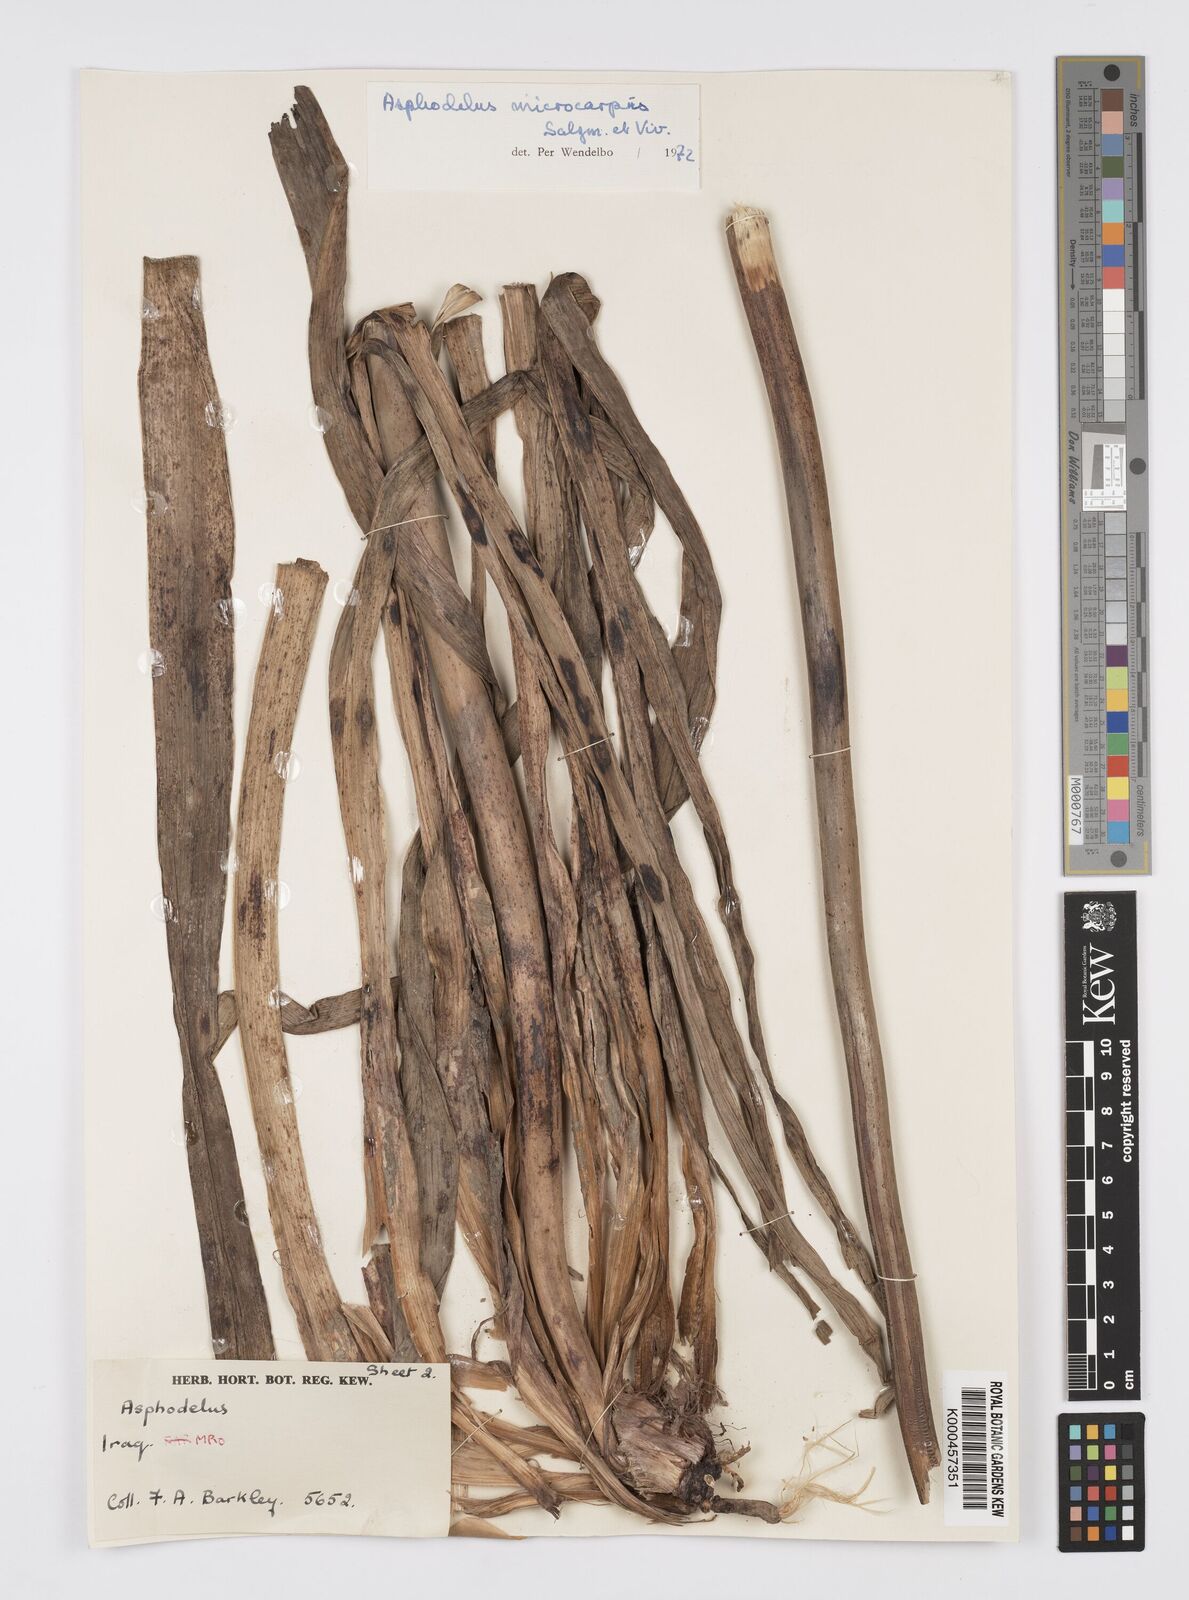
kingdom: Plantae
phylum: Tracheophyta
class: Liliopsida
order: Asparagales
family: Asphodelaceae
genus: Asphodelus
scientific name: Asphodelus aestivus
